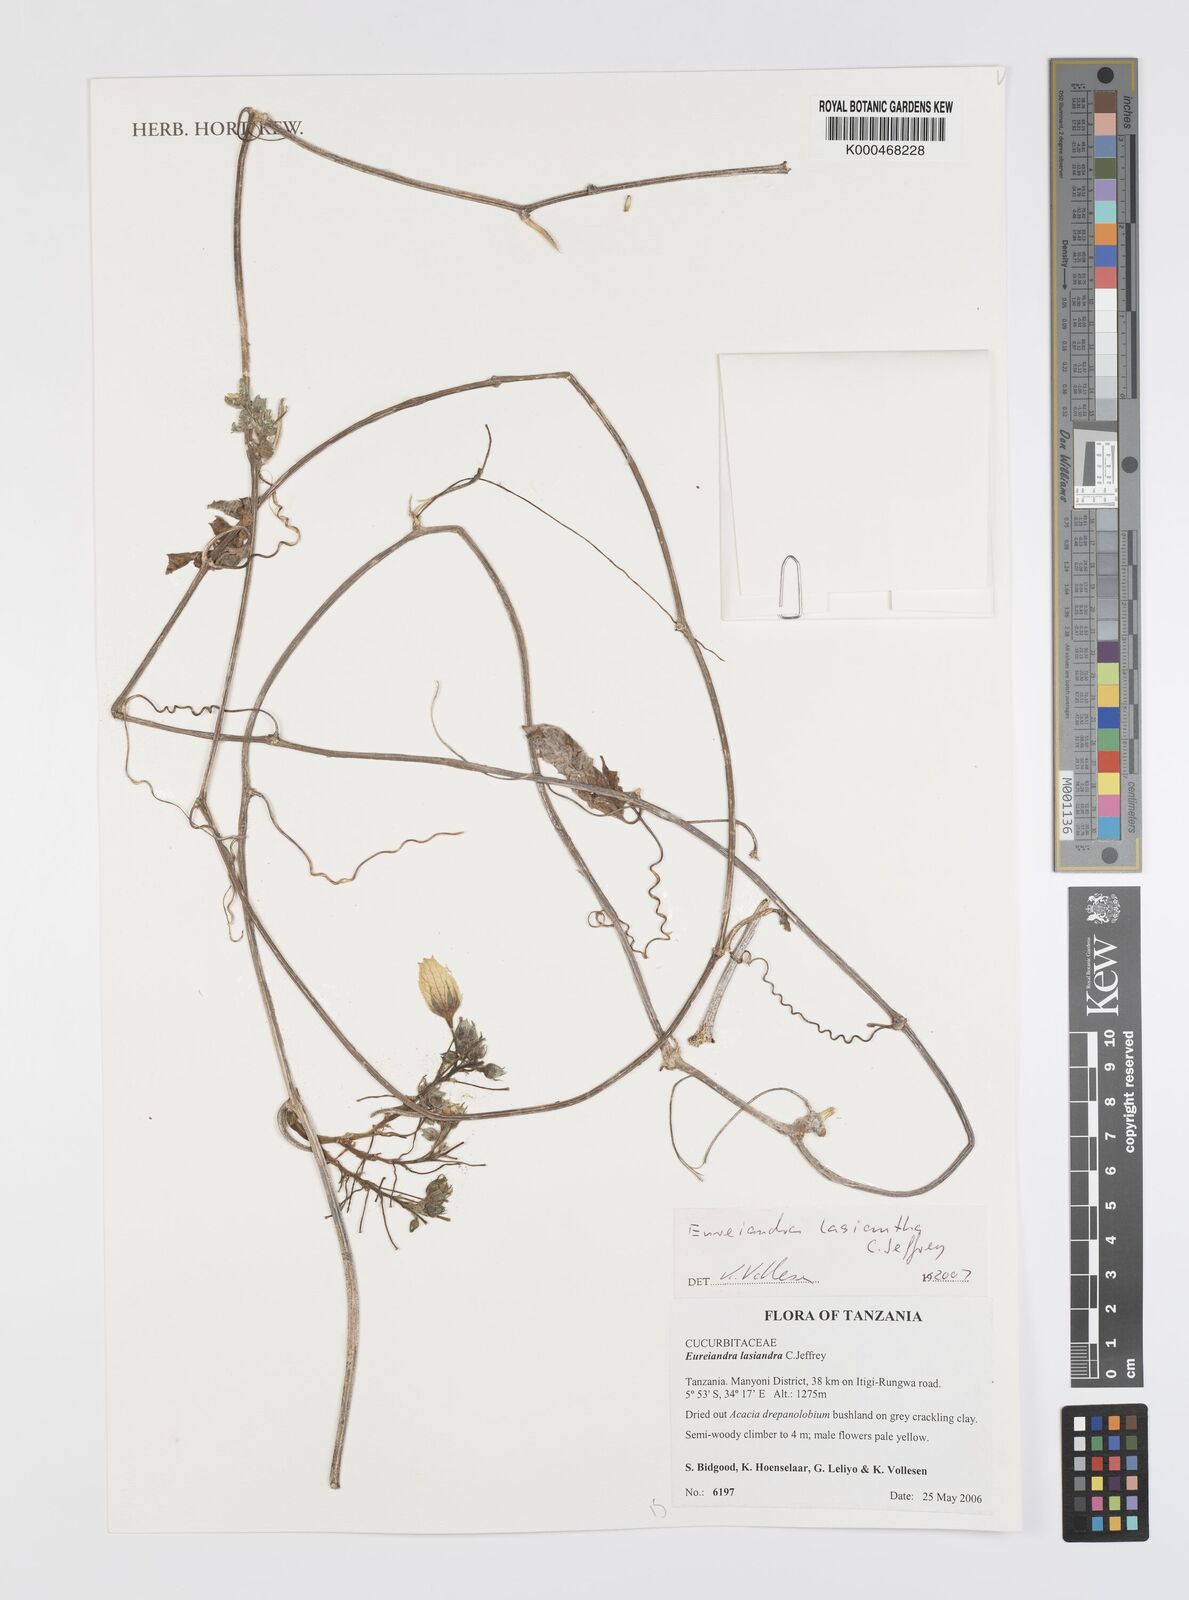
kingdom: Plantae
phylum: Tracheophyta
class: Magnoliopsida
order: Cucurbitales
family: Cucurbitaceae
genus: Eureiandra
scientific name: Eureiandra lasiandra
